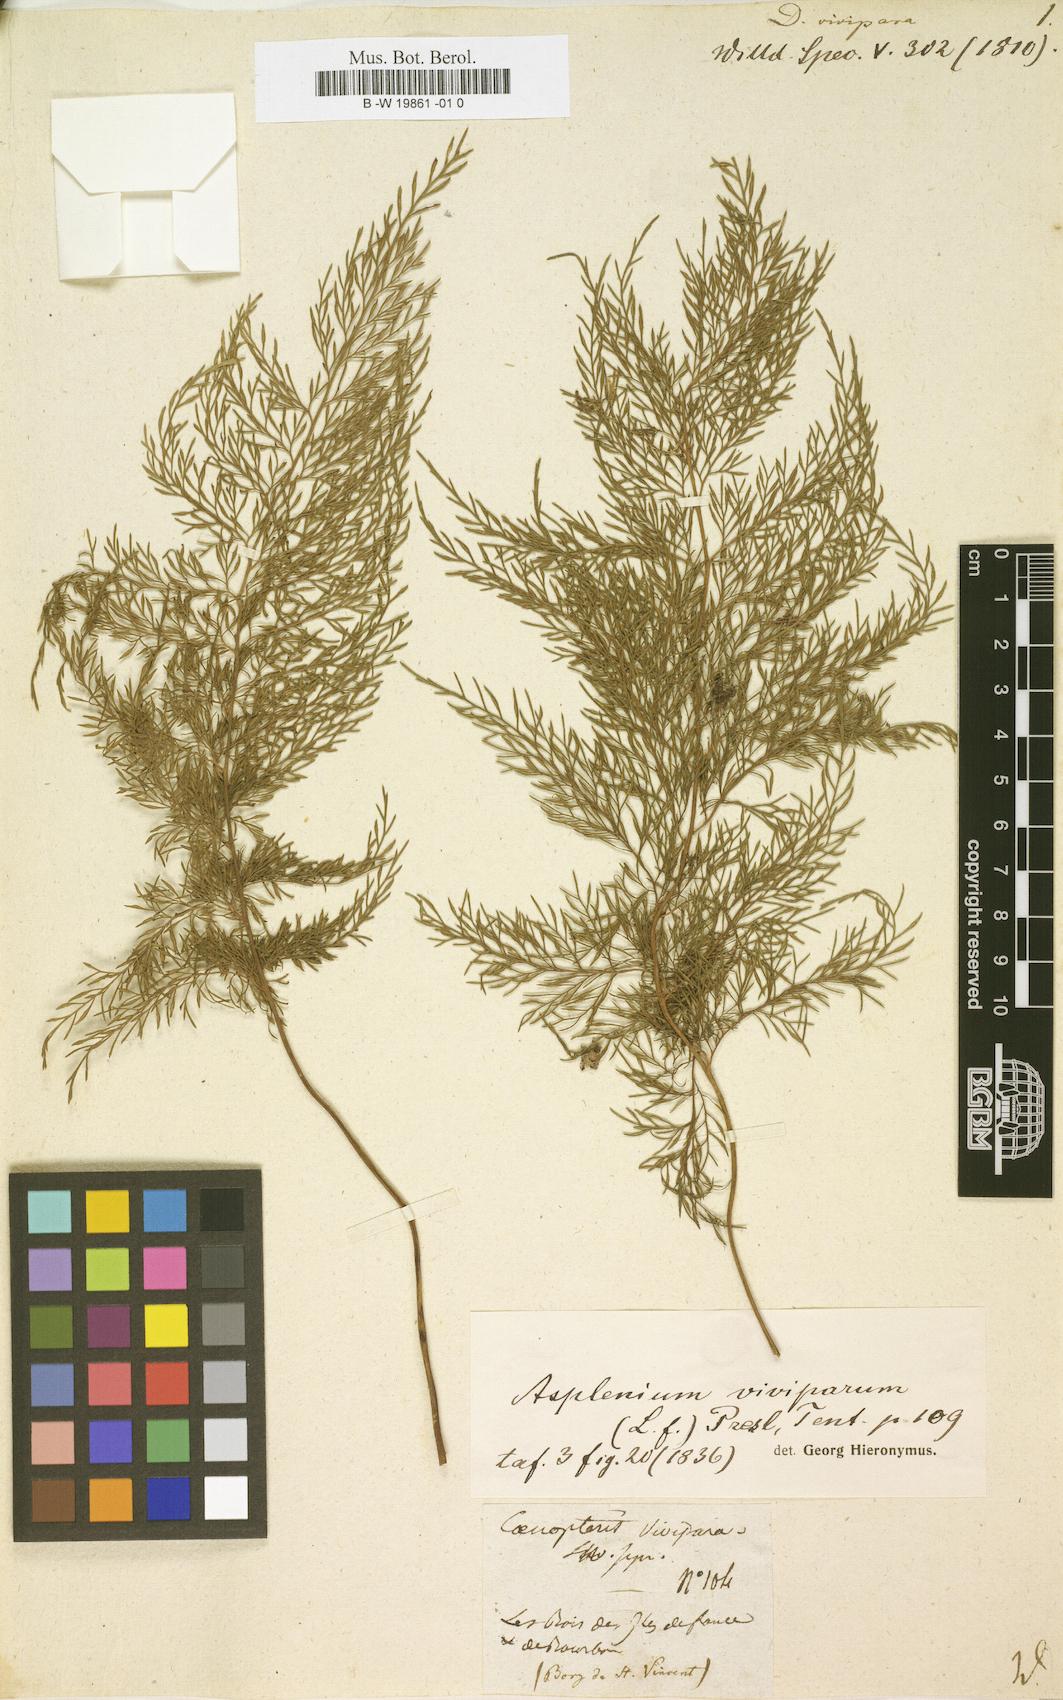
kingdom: Plantae
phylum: Tracheophyta
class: Polypodiopsida
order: Polypodiales
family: Aspleniaceae
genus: Asplenium
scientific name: Asplenium daucifolium
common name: Mauritius spleenwort
